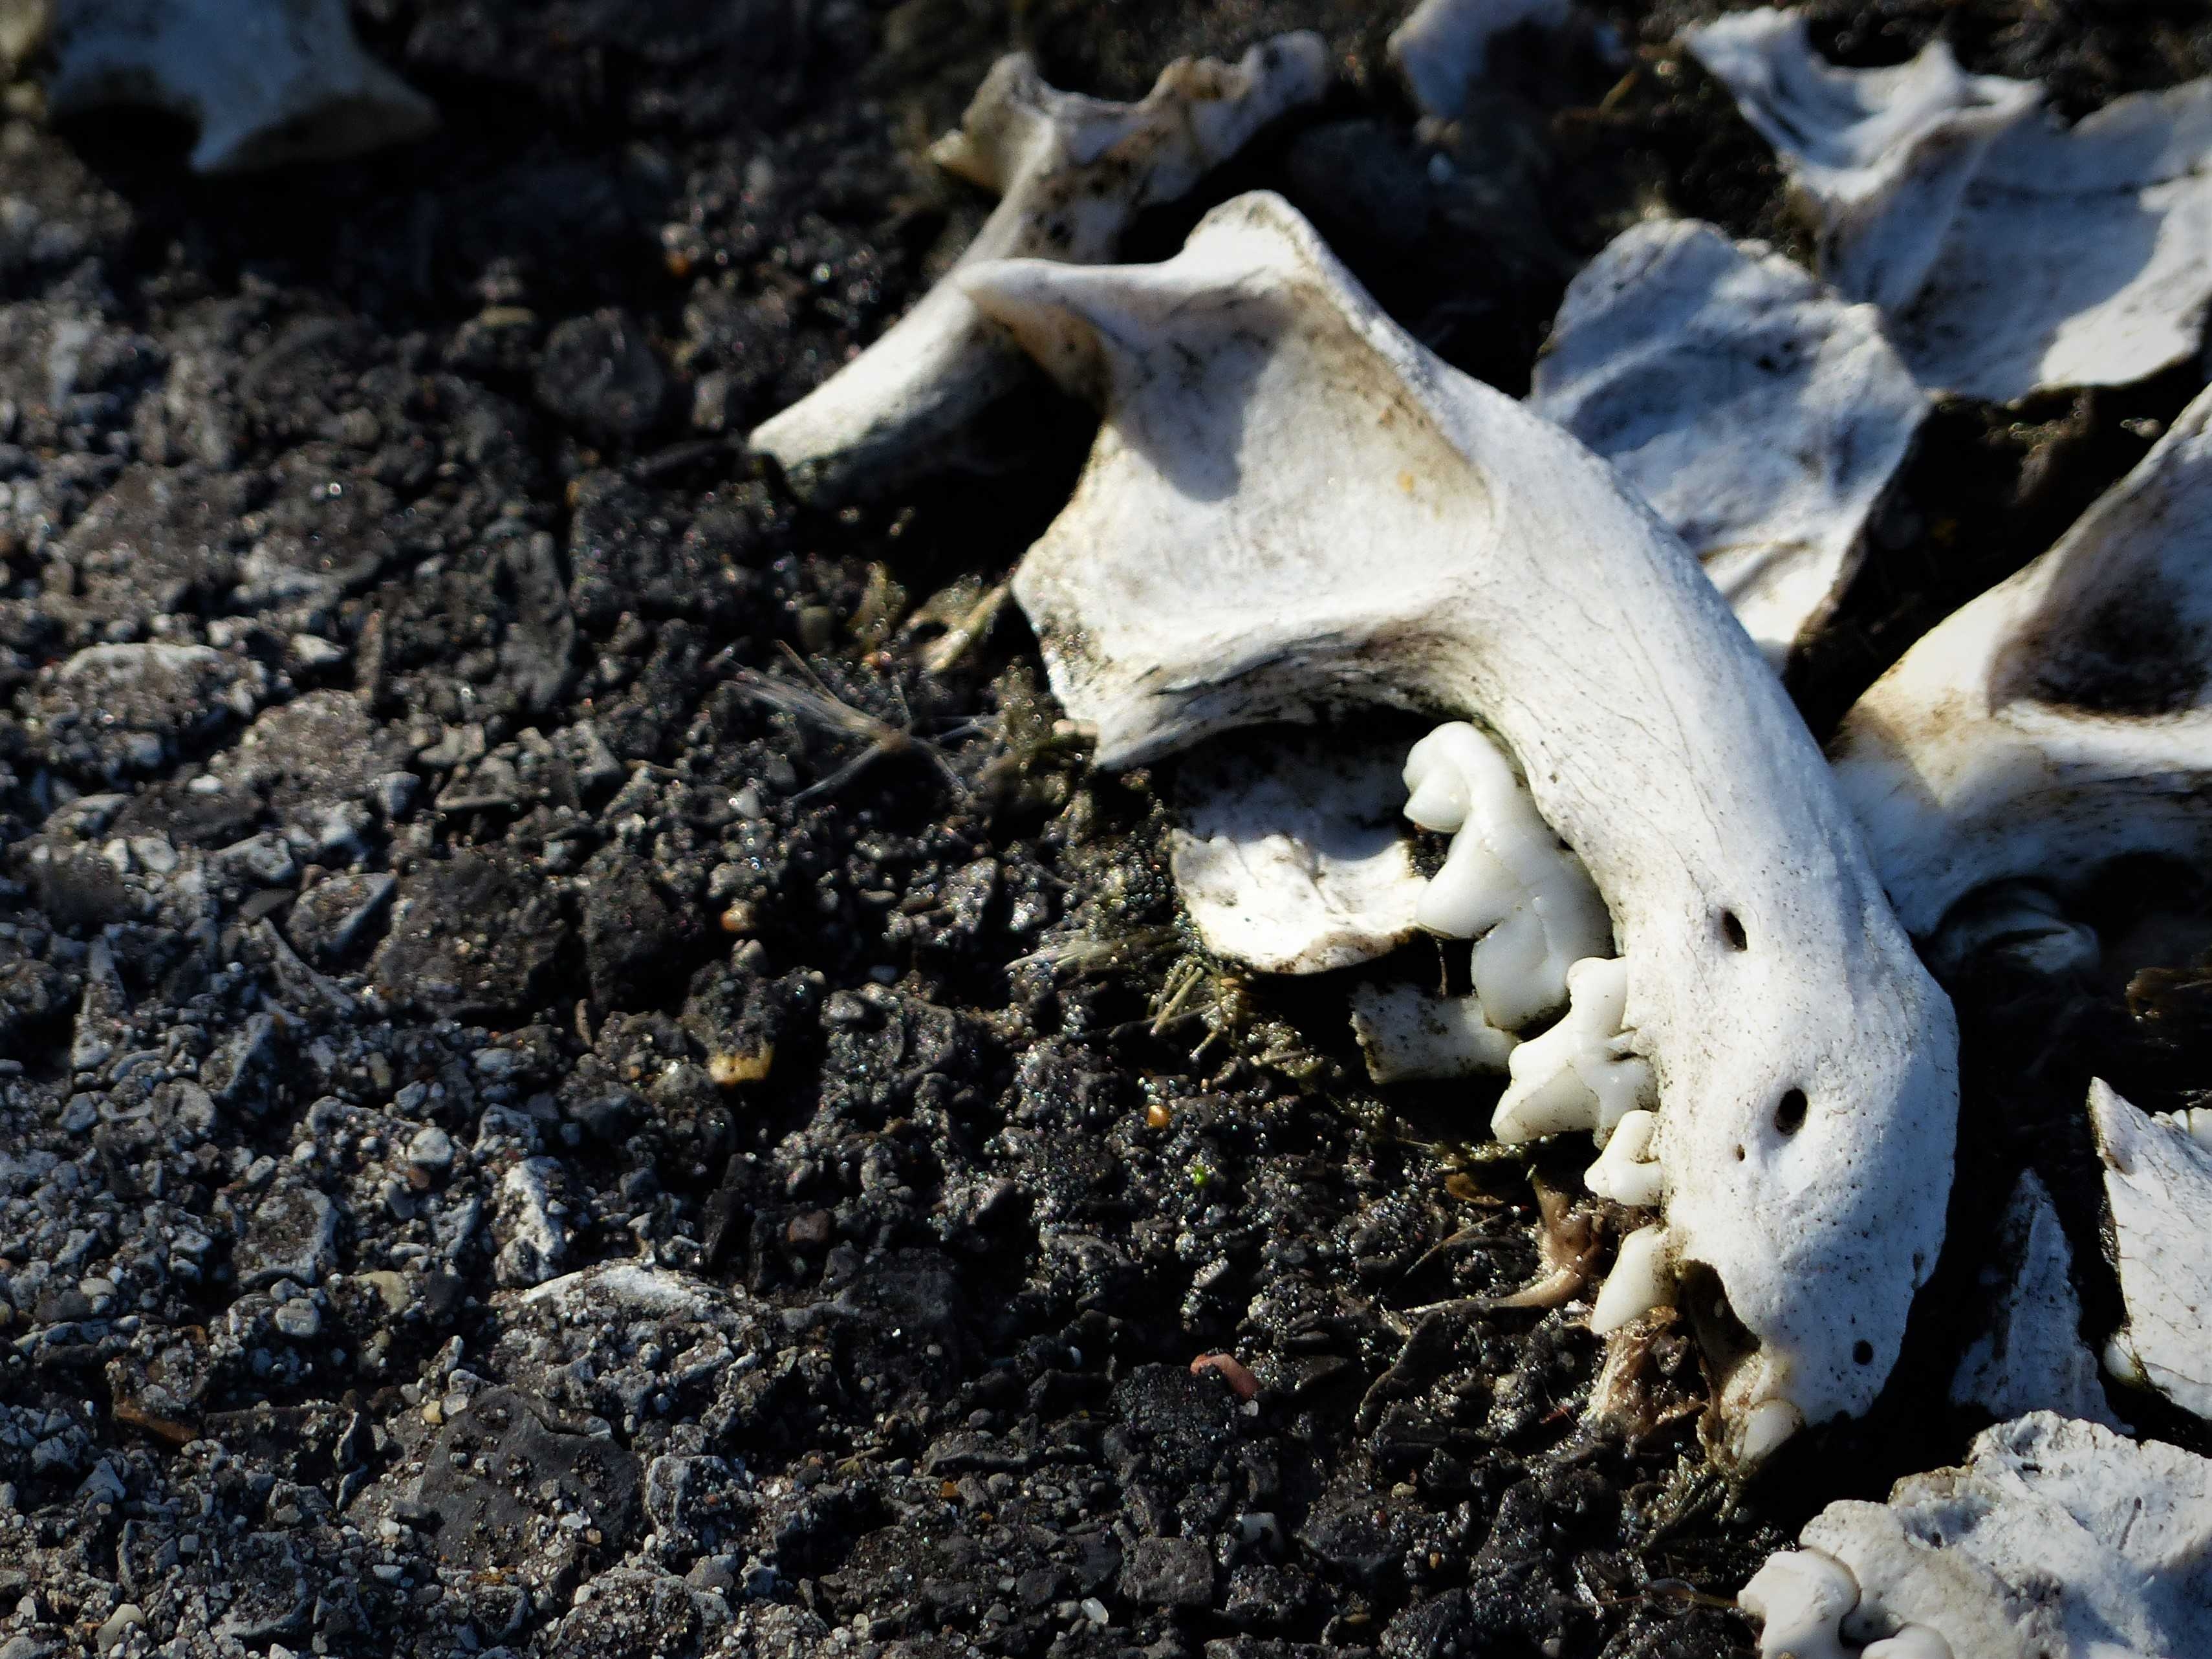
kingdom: Animalia
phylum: Chordata
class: Mammalia
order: Carnivora
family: Mustelidae
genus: Lontra
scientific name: Lontra canadensis
